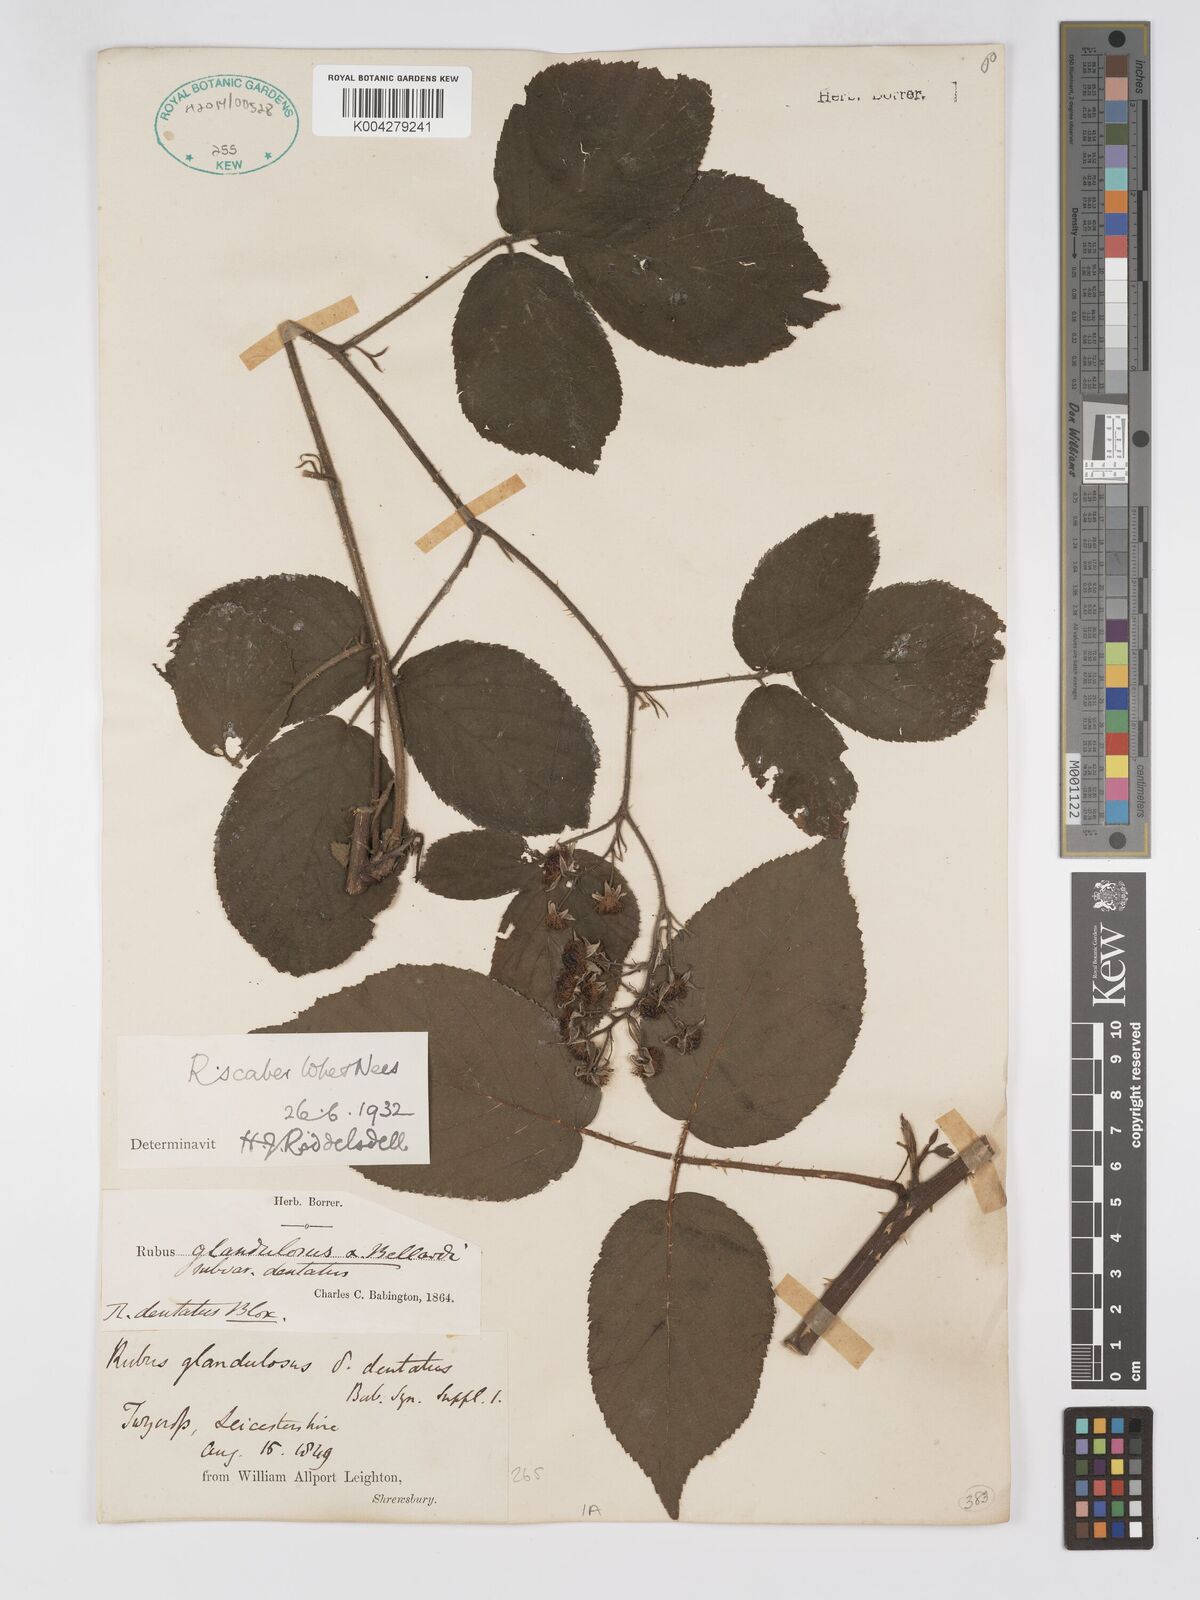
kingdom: Plantae
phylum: Tracheophyta
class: Magnoliopsida
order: Rosales
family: Rosaceae
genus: Rubus
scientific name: Rubus scaber
